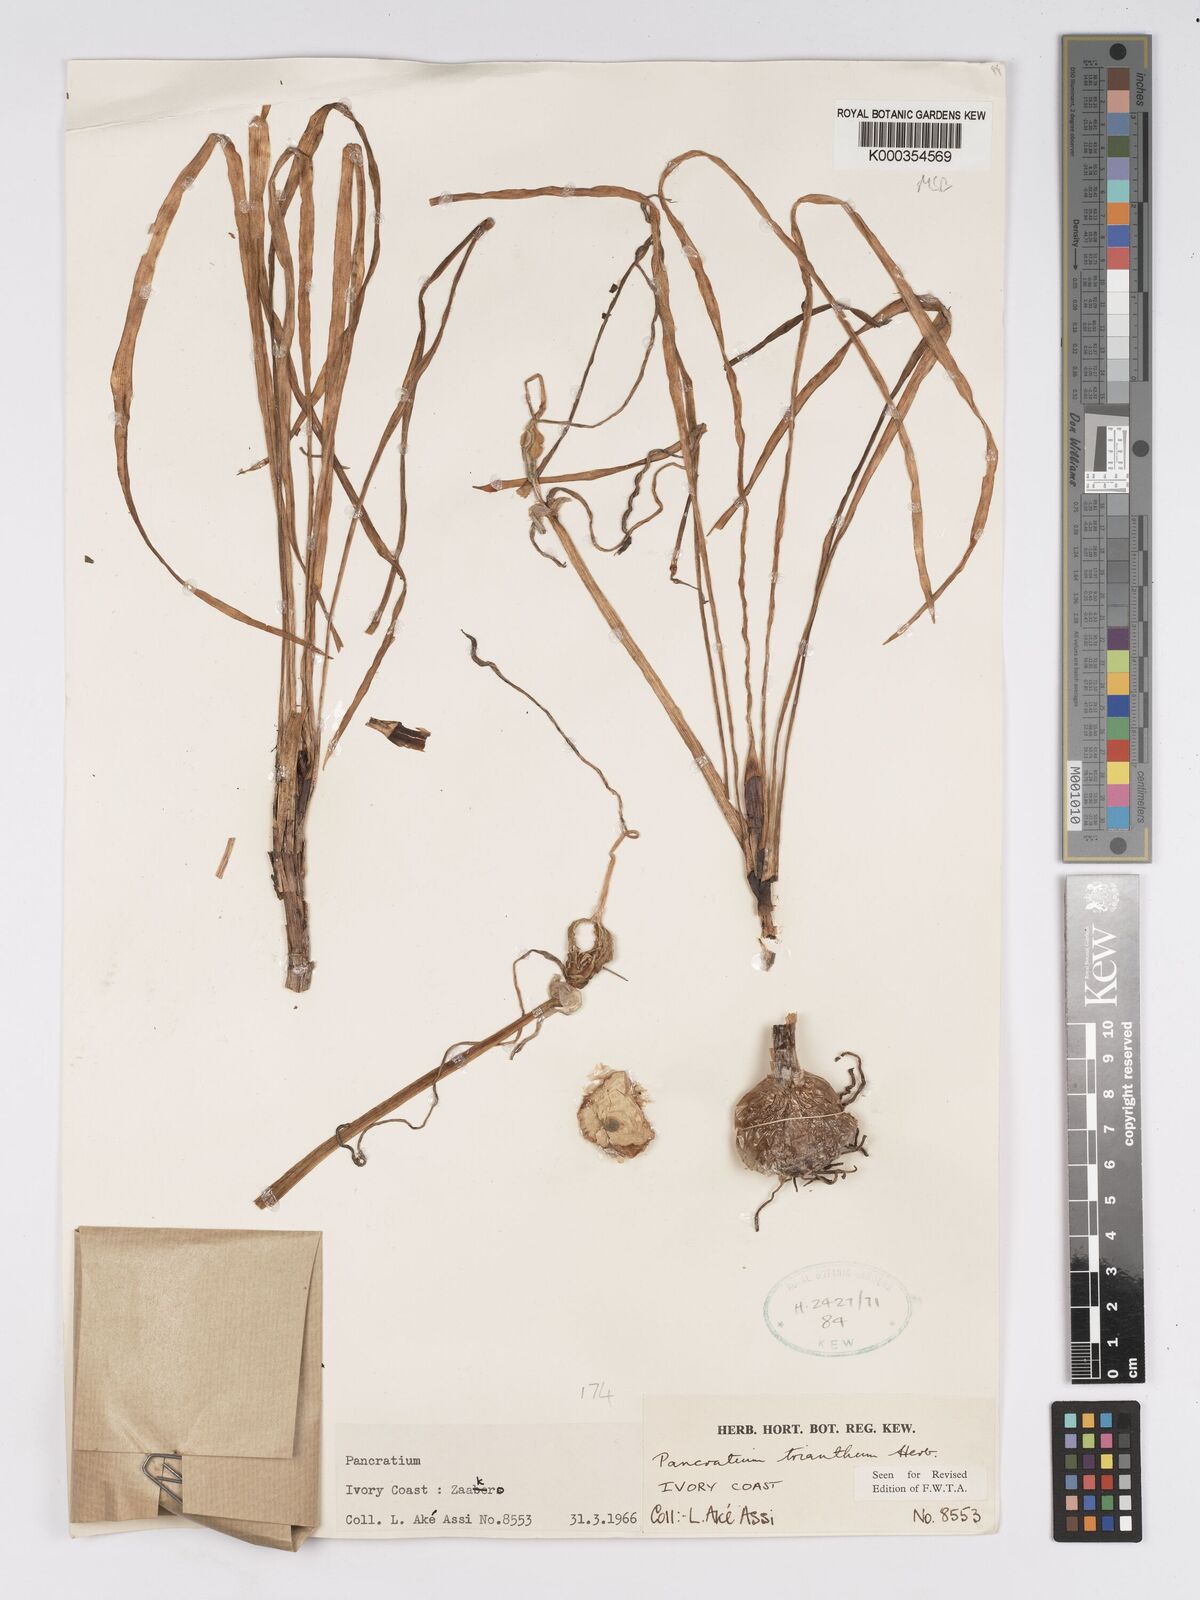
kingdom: Plantae
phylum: Tracheophyta
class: Liliopsida
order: Asparagales
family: Amaryllidaceae
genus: Pancratium
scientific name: Pancratium trianthum
